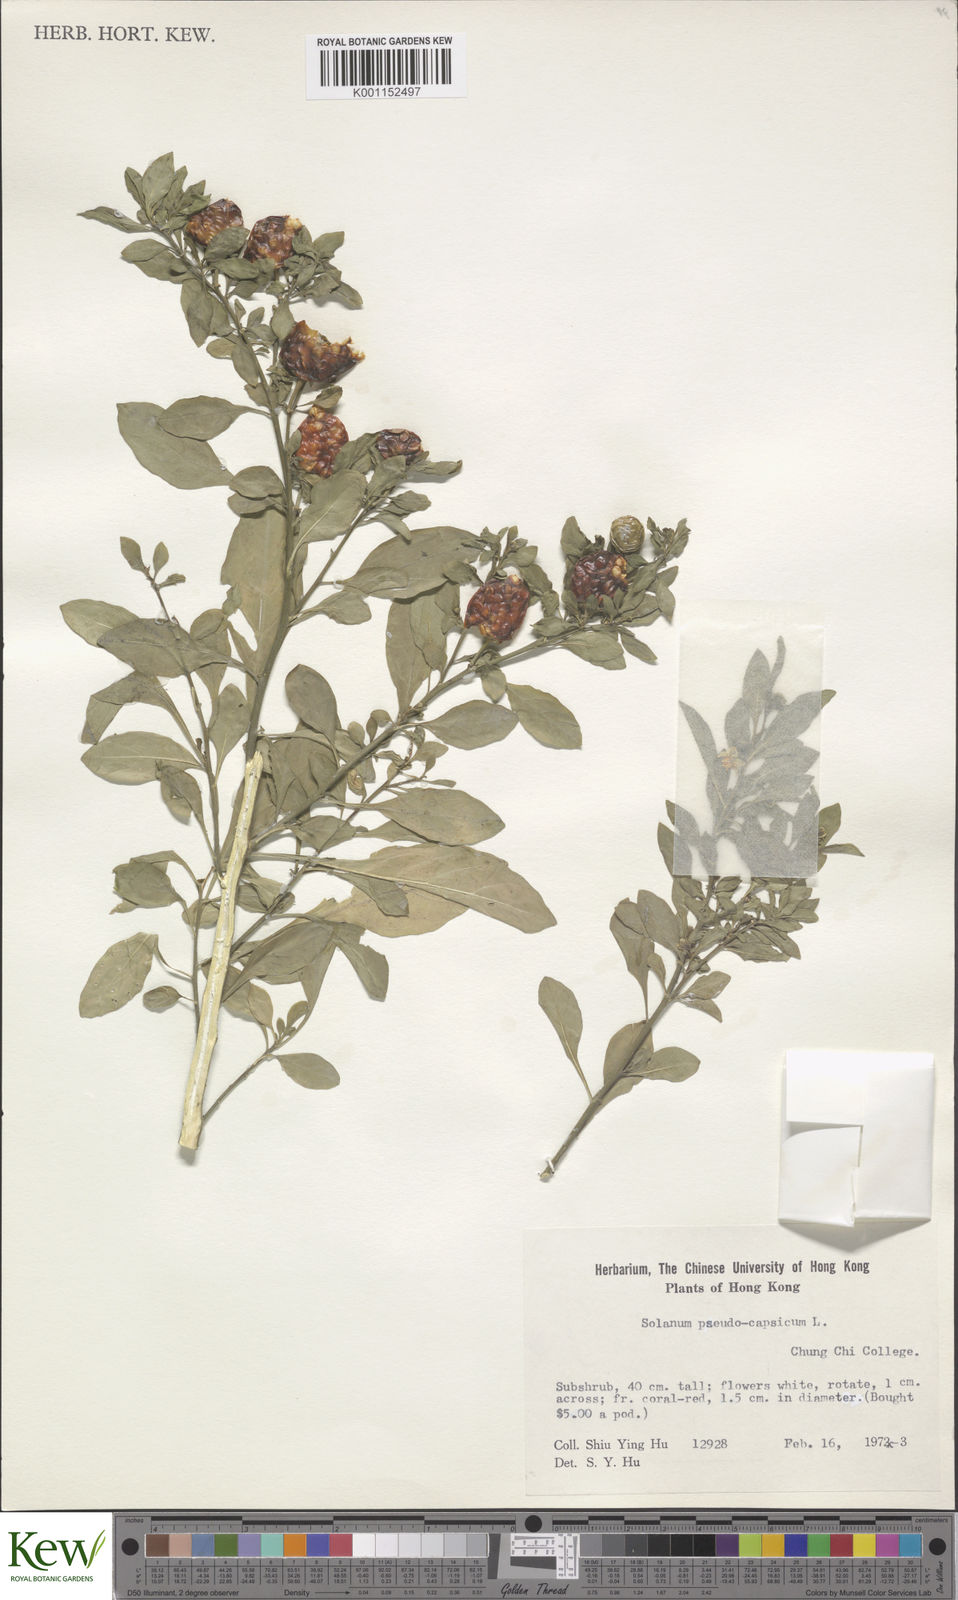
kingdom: Plantae
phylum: Tracheophyta
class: Magnoliopsida
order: Solanales
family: Solanaceae
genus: Solanum
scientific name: Solanum pseudocapsicum
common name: Jerusalem cherry
